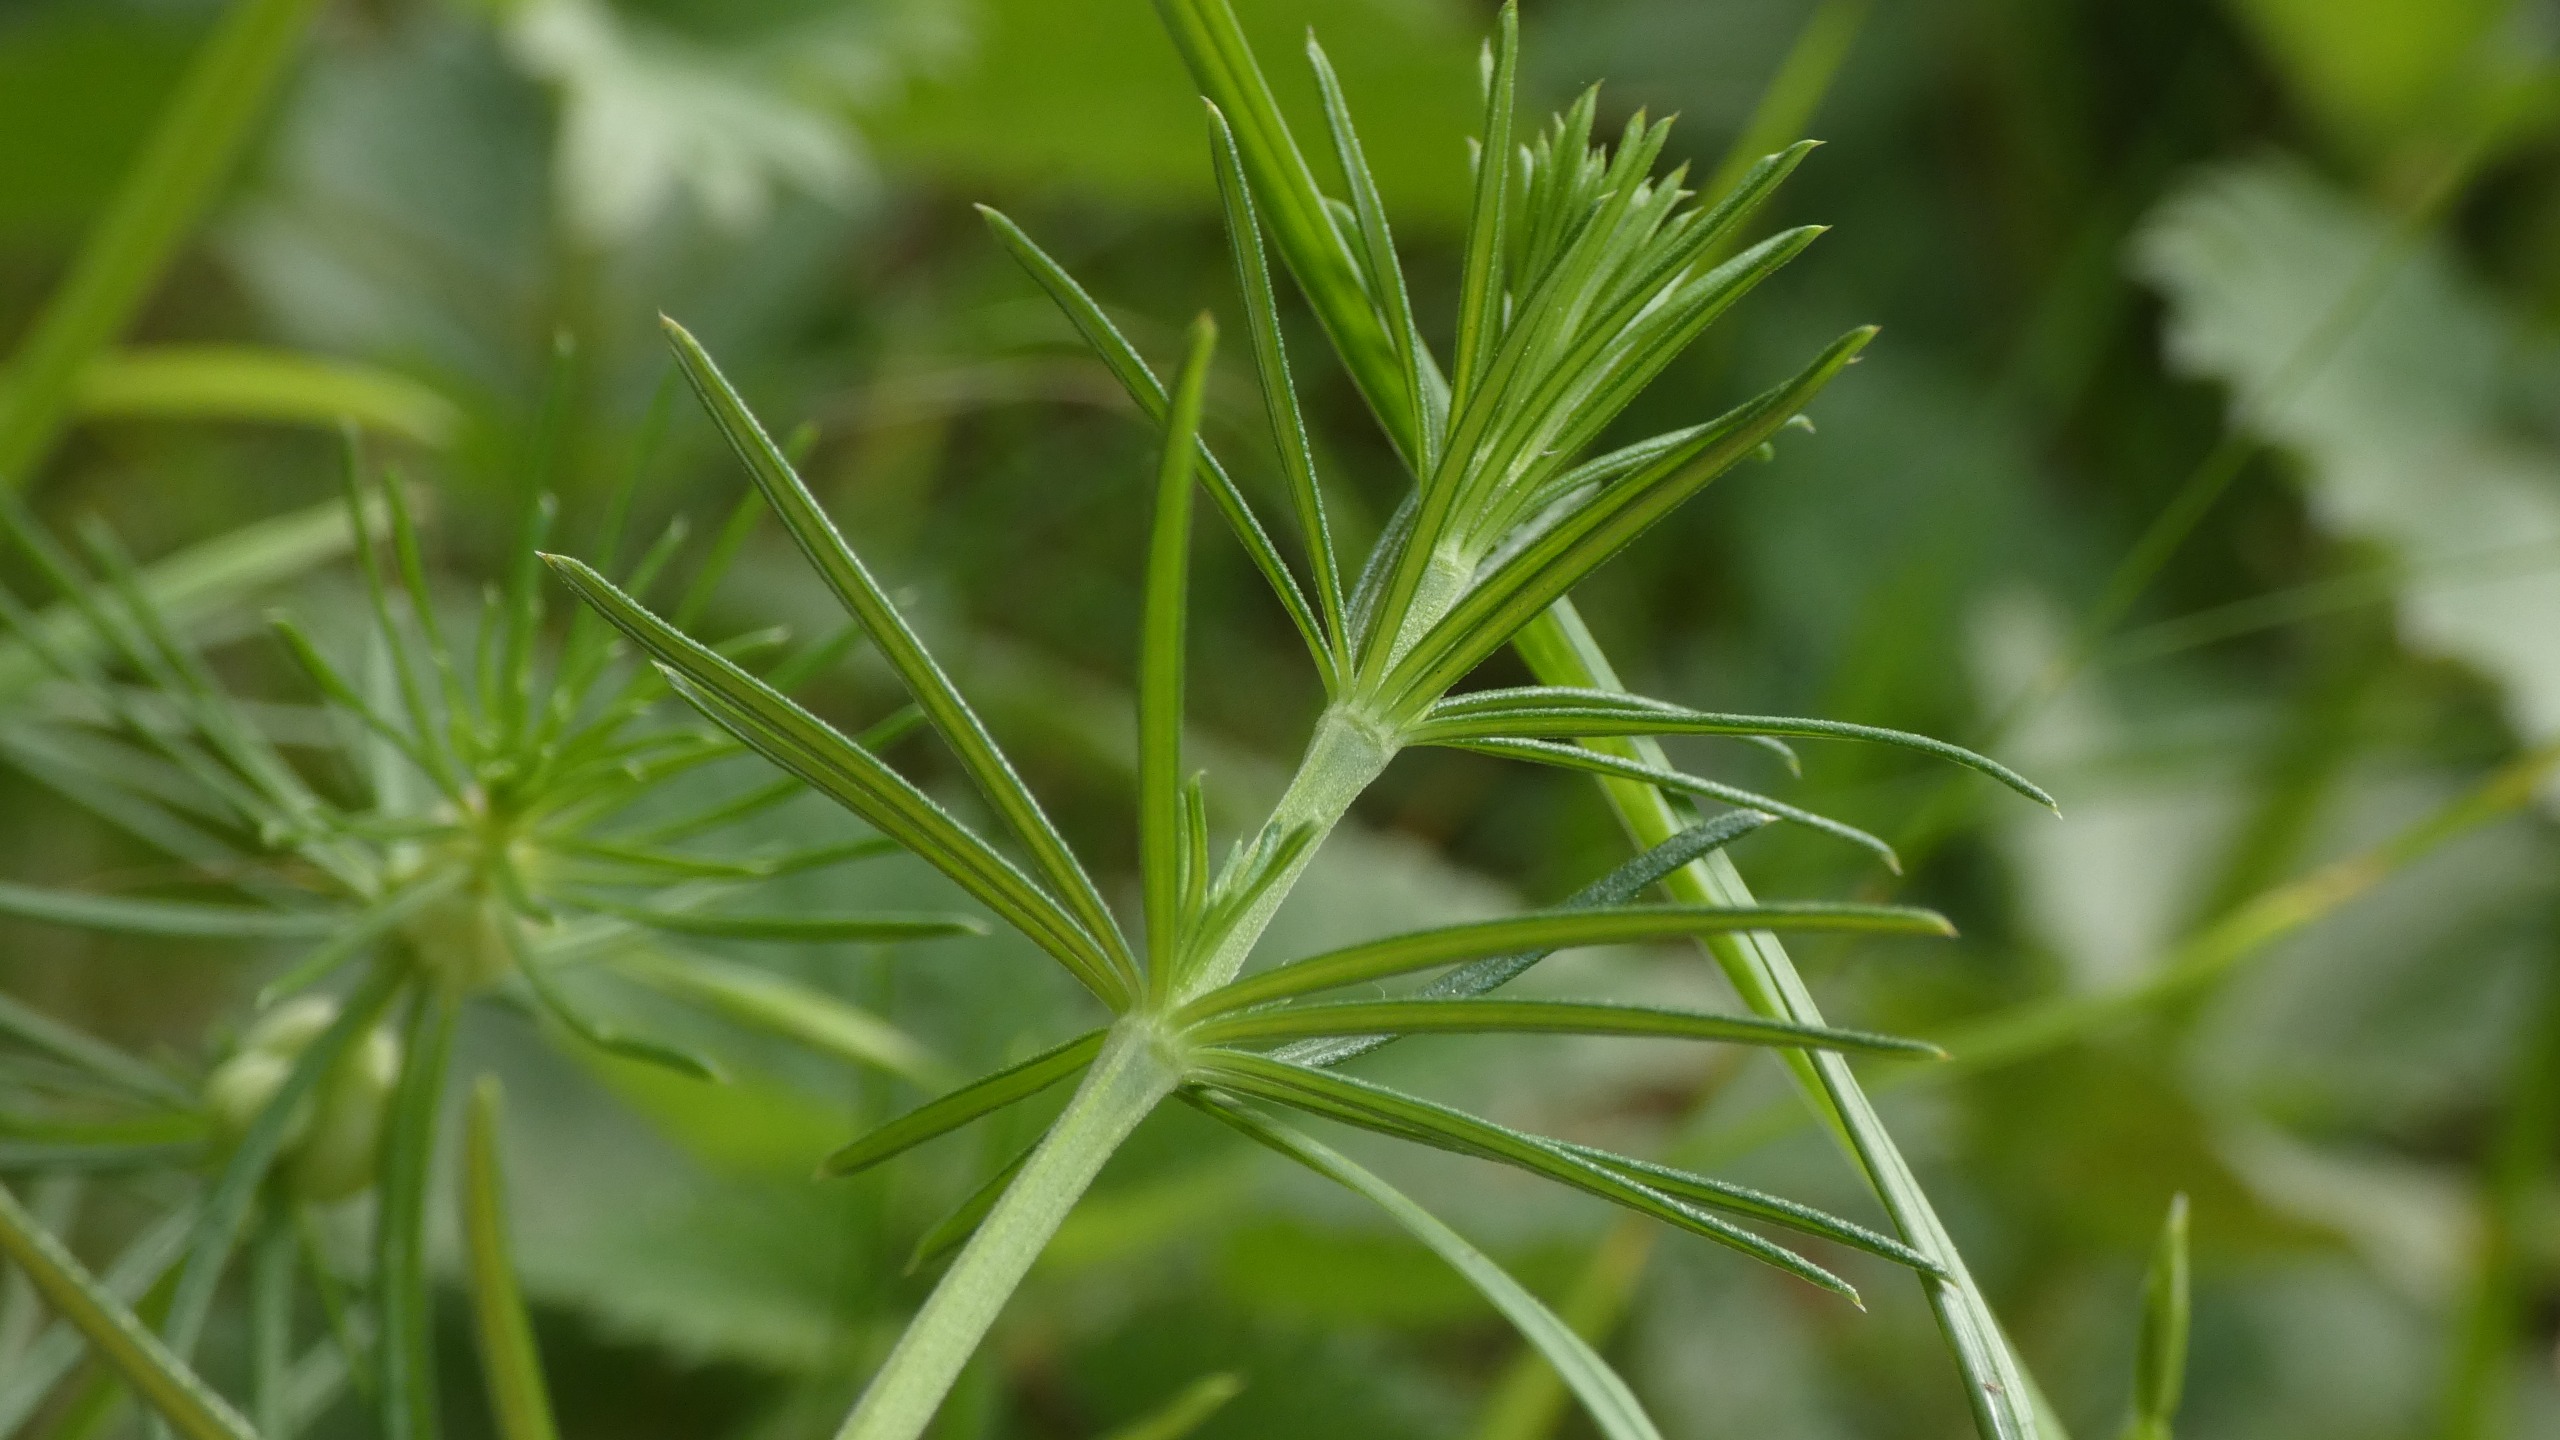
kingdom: Plantae
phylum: Tracheophyta
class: Magnoliopsida
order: Gentianales
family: Rubiaceae
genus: Galium
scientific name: Galium verum
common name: Gul snerre
